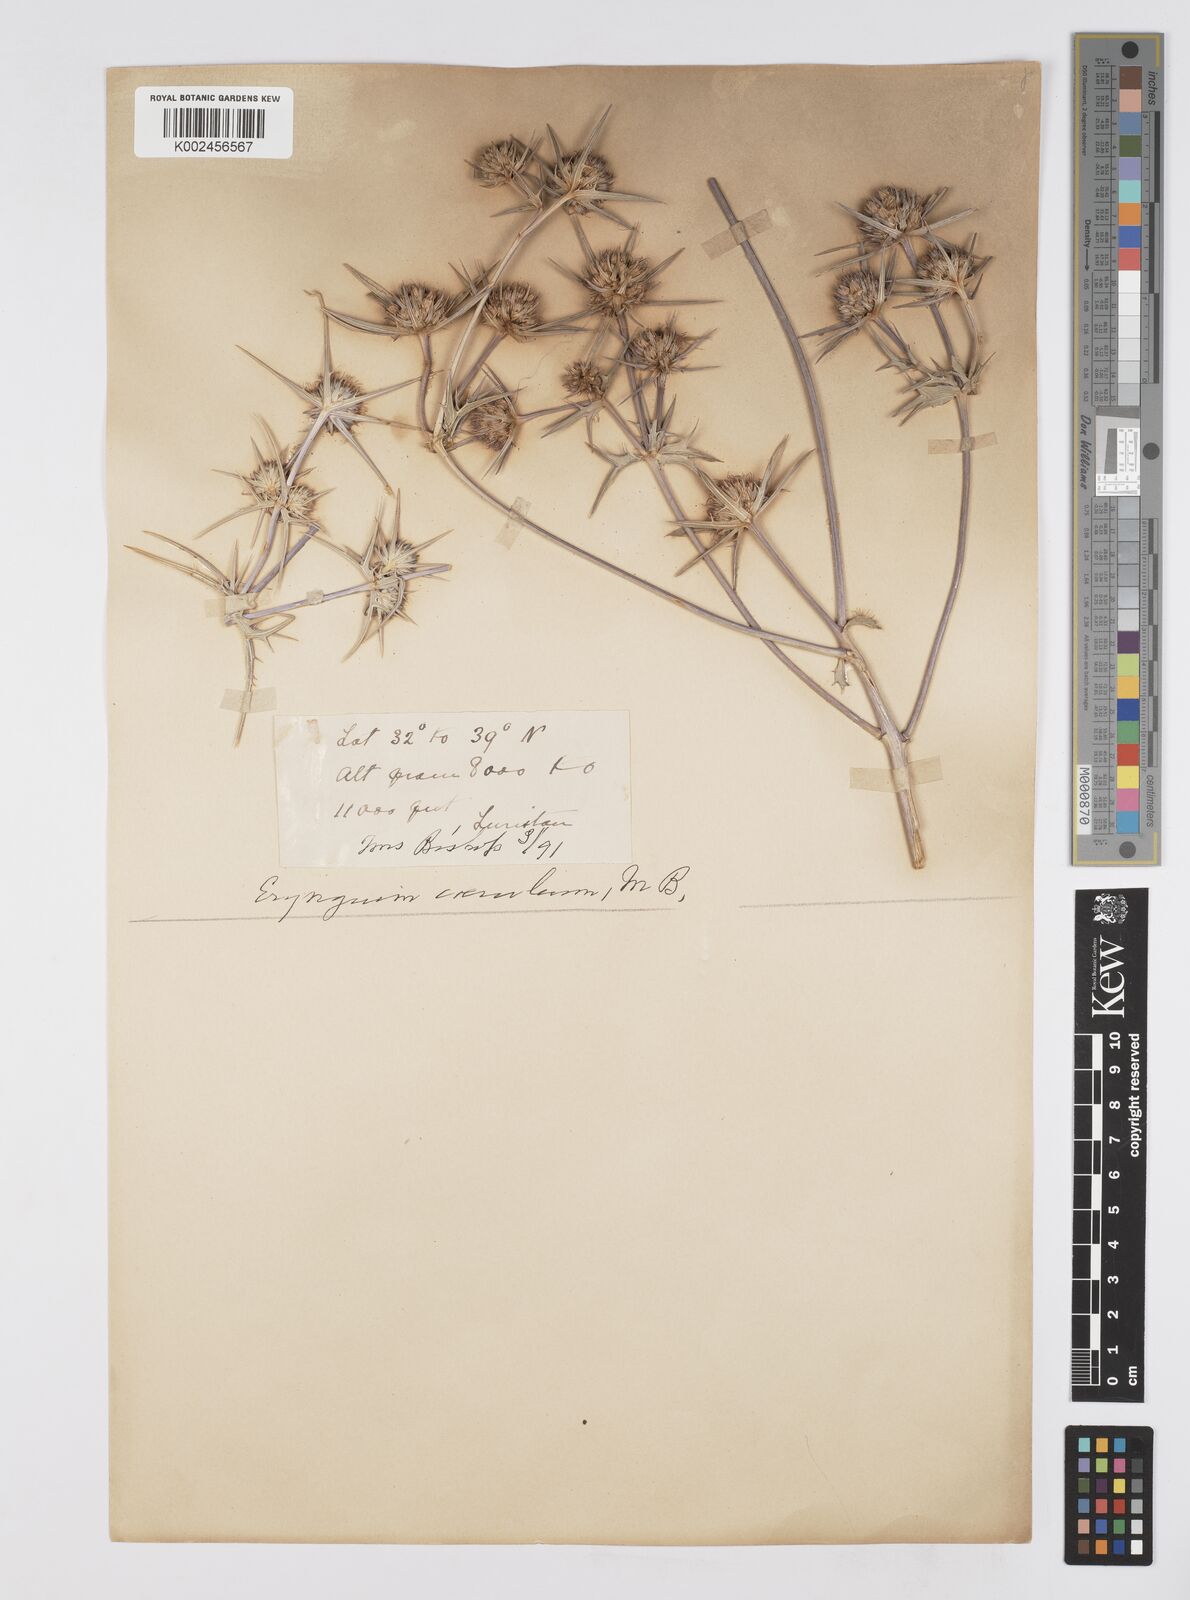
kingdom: Plantae
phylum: Tracheophyta
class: Magnoliopsida
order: Apiales
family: Apiaceae
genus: Eryngium
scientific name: Eryngium caeruleum
